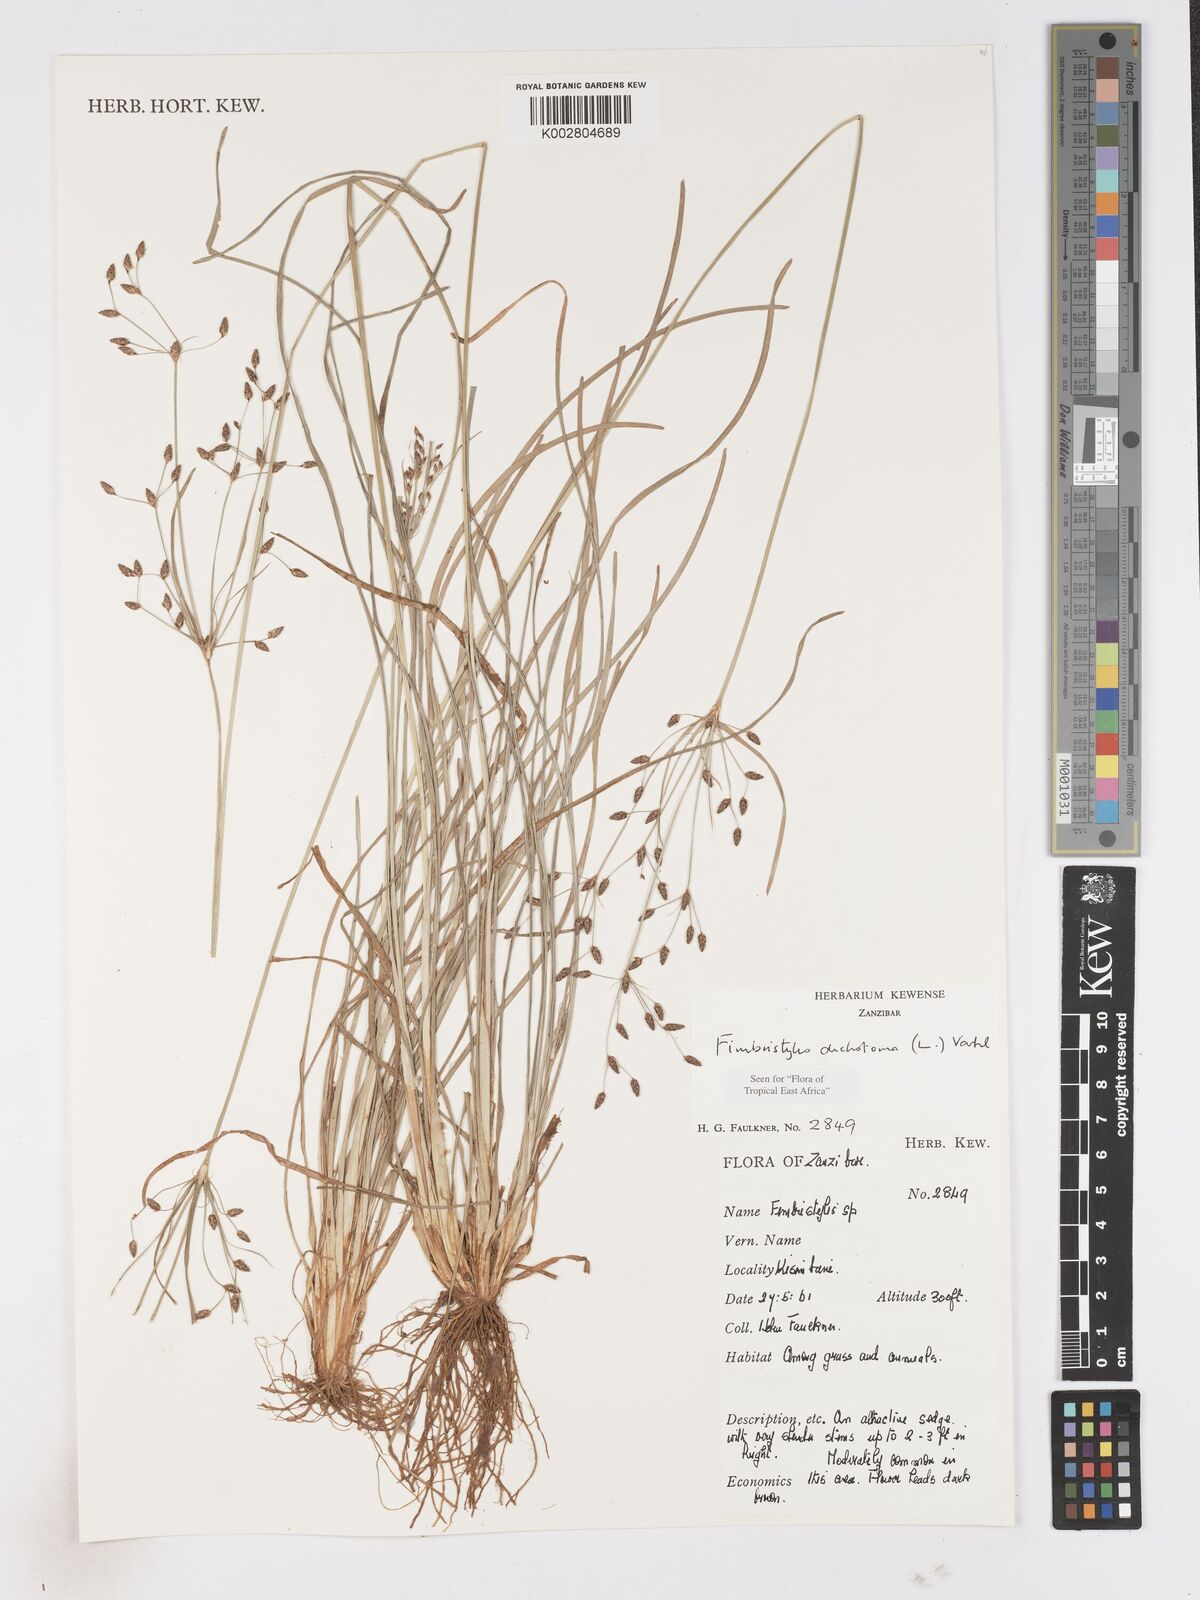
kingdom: Plantae
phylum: Tracheophyta
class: Liliopsida
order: Poales
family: Cyperaceae
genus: Fimbristylis
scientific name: Fimbristylis dichotoma
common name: Forked fimbry
